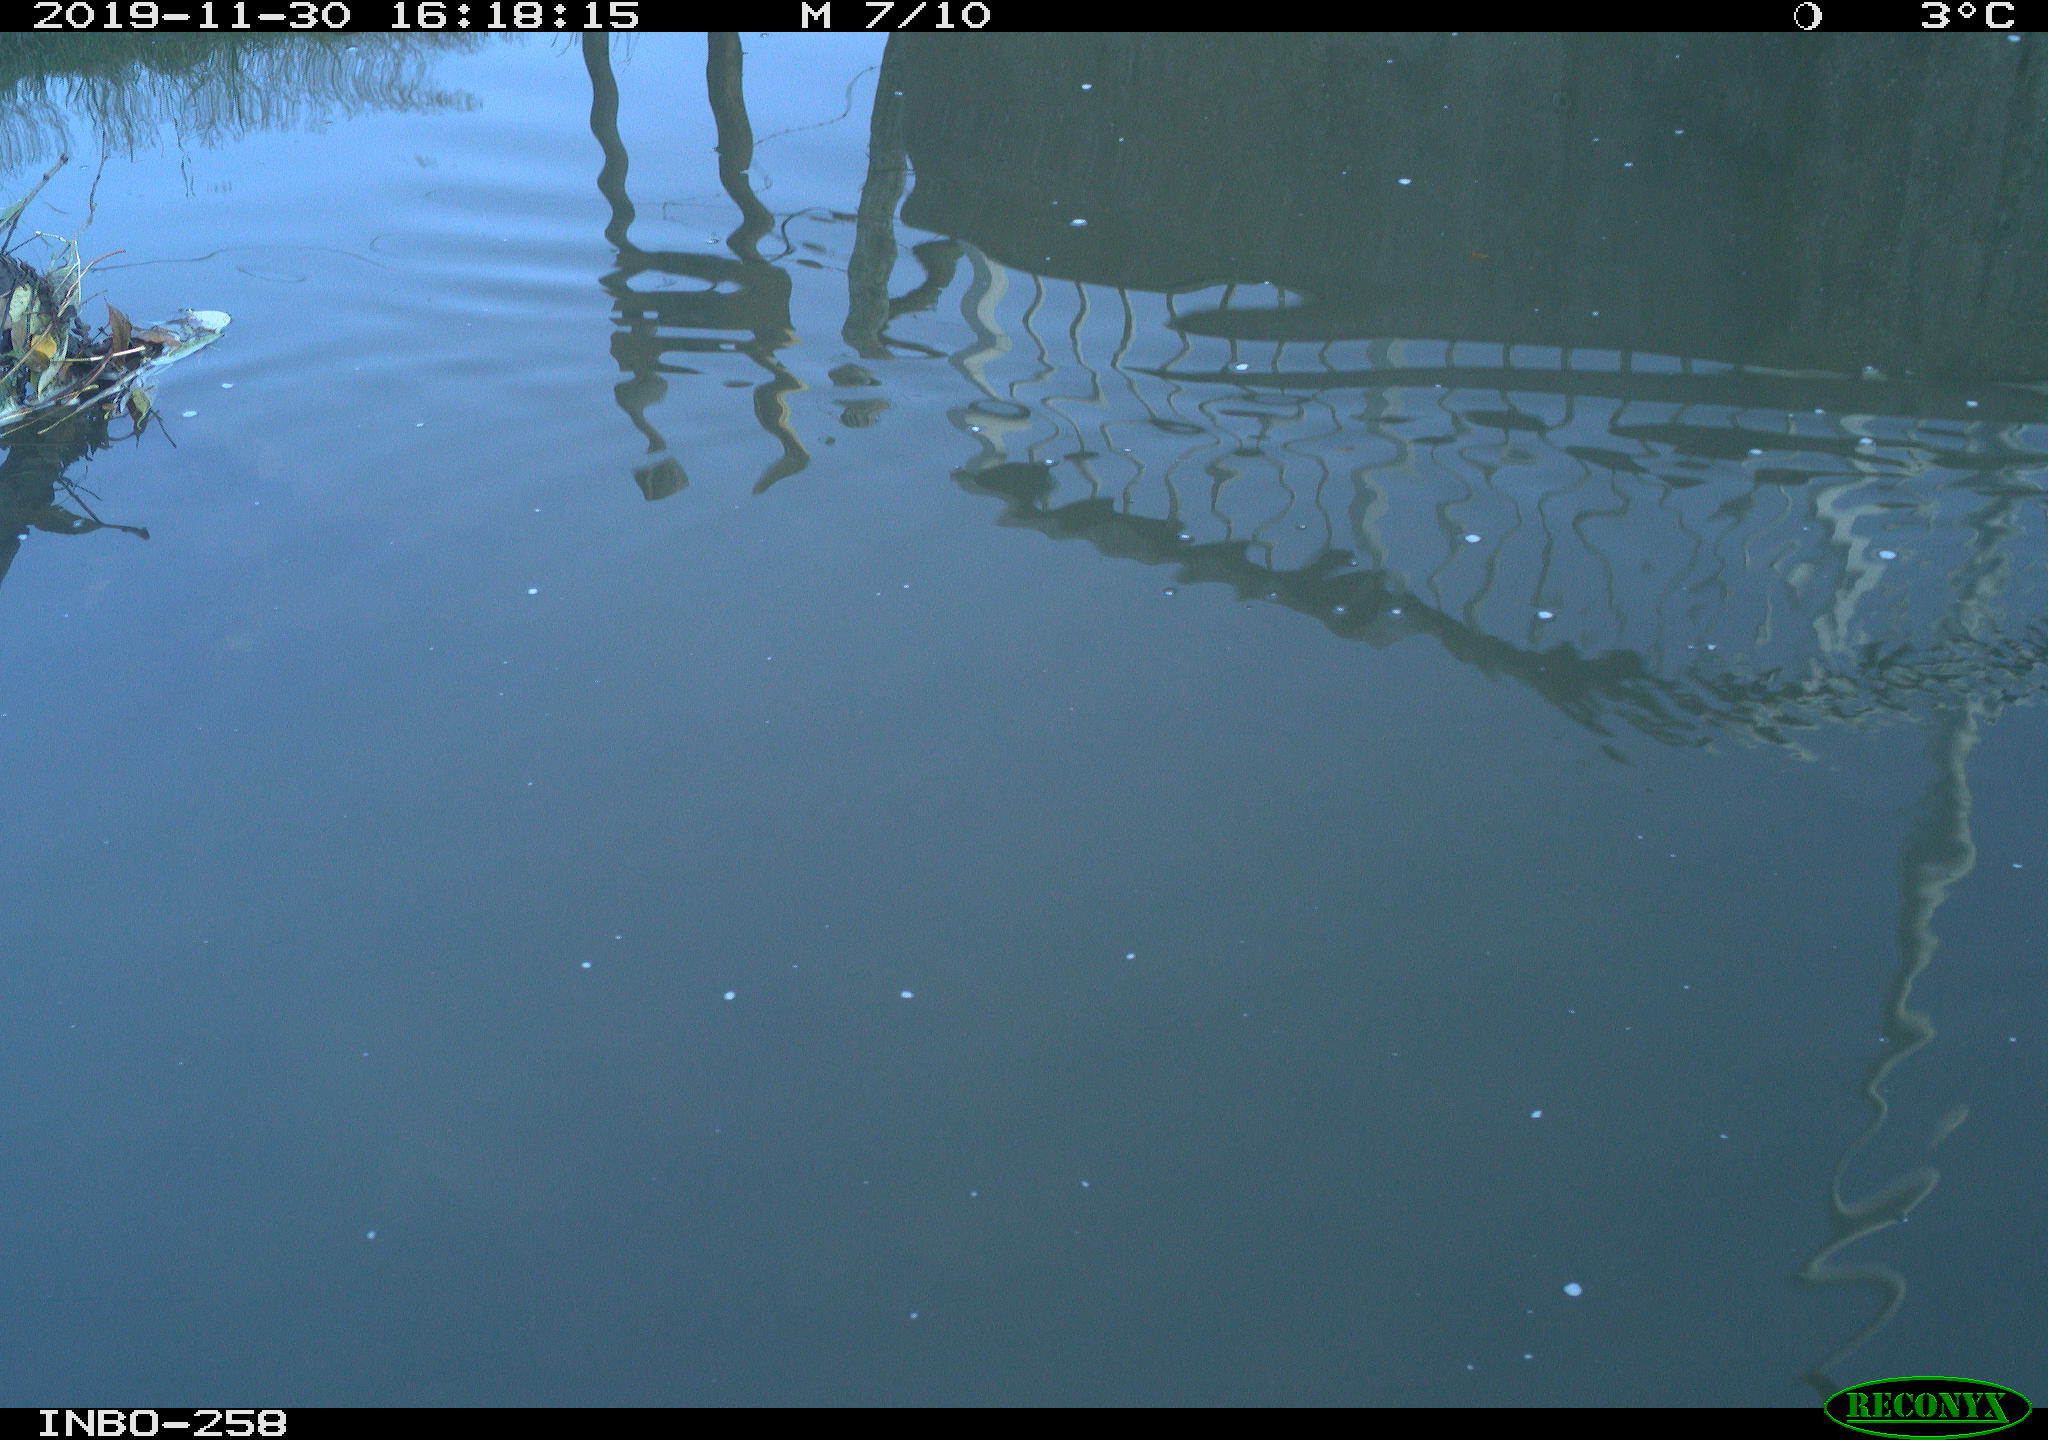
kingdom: Animalia
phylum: Chordata
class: Aves
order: Gruiformes
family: Rallidae
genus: Gallinula
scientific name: Gallinula chloropus
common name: Common moorhen
